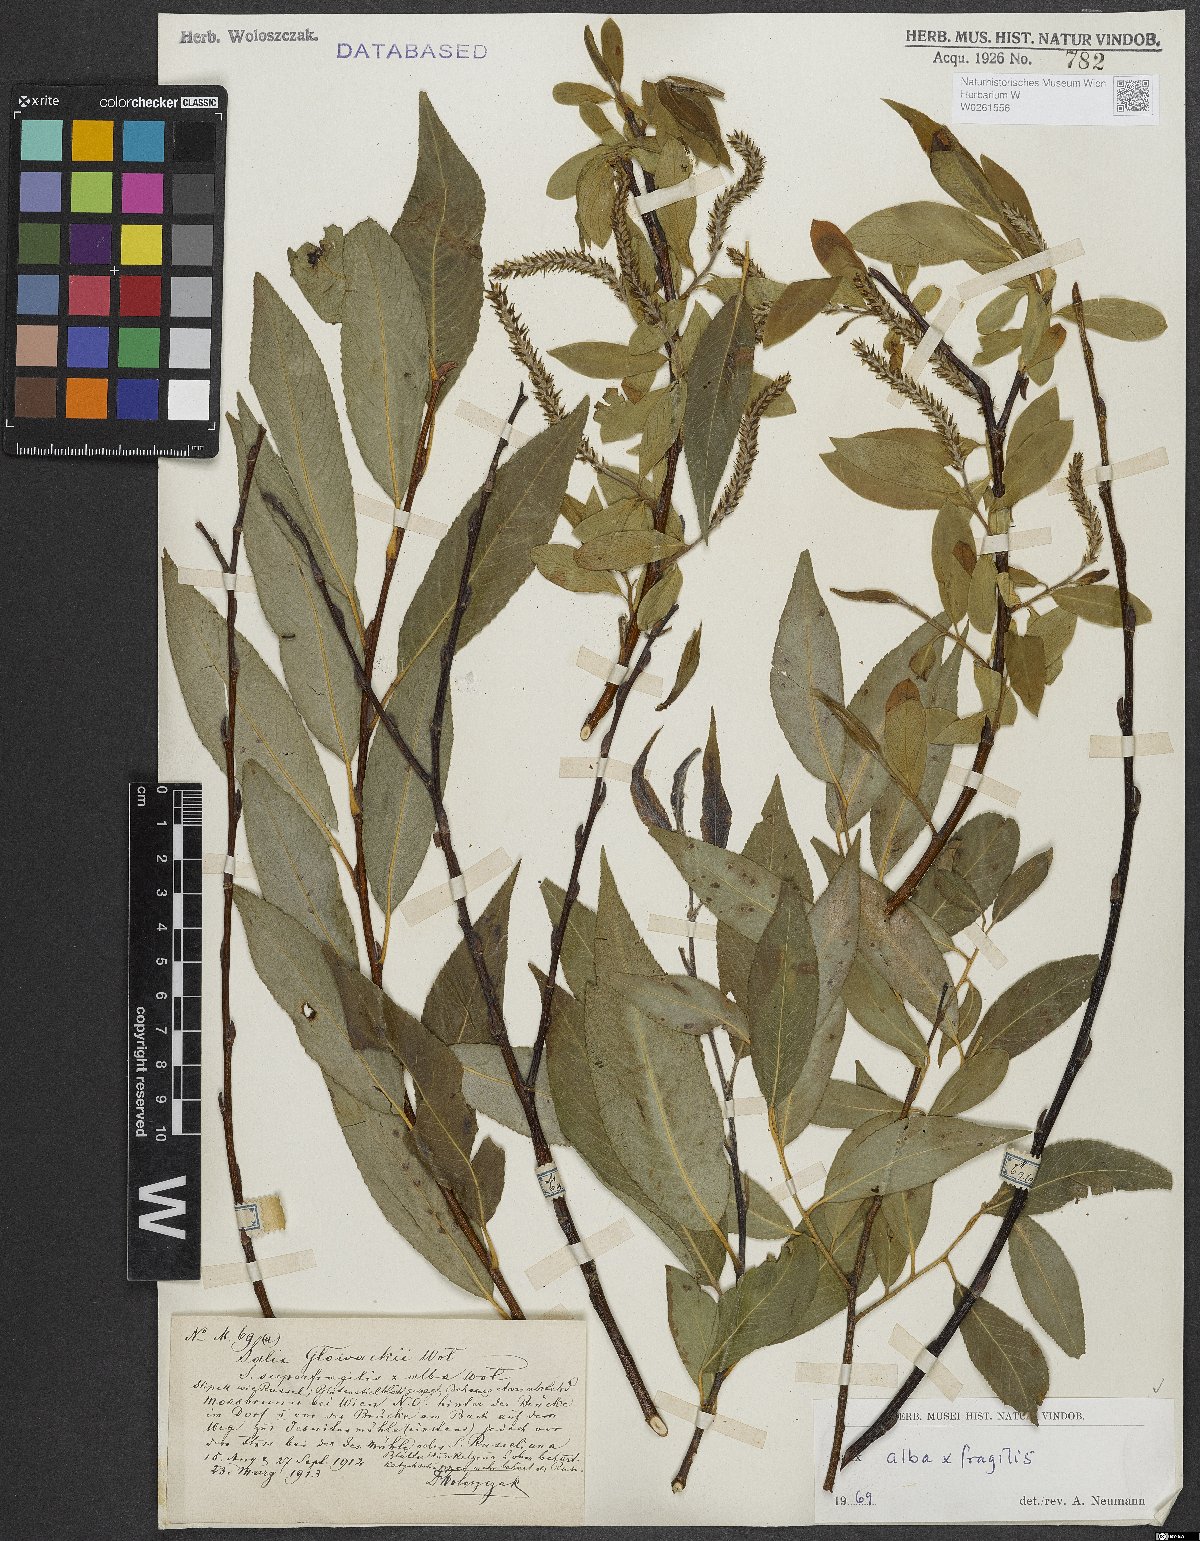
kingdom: Plantae
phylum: Tracheophyta
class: Magnoliopsida
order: Malpighiales
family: Salicaceae
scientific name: Salicaceae
